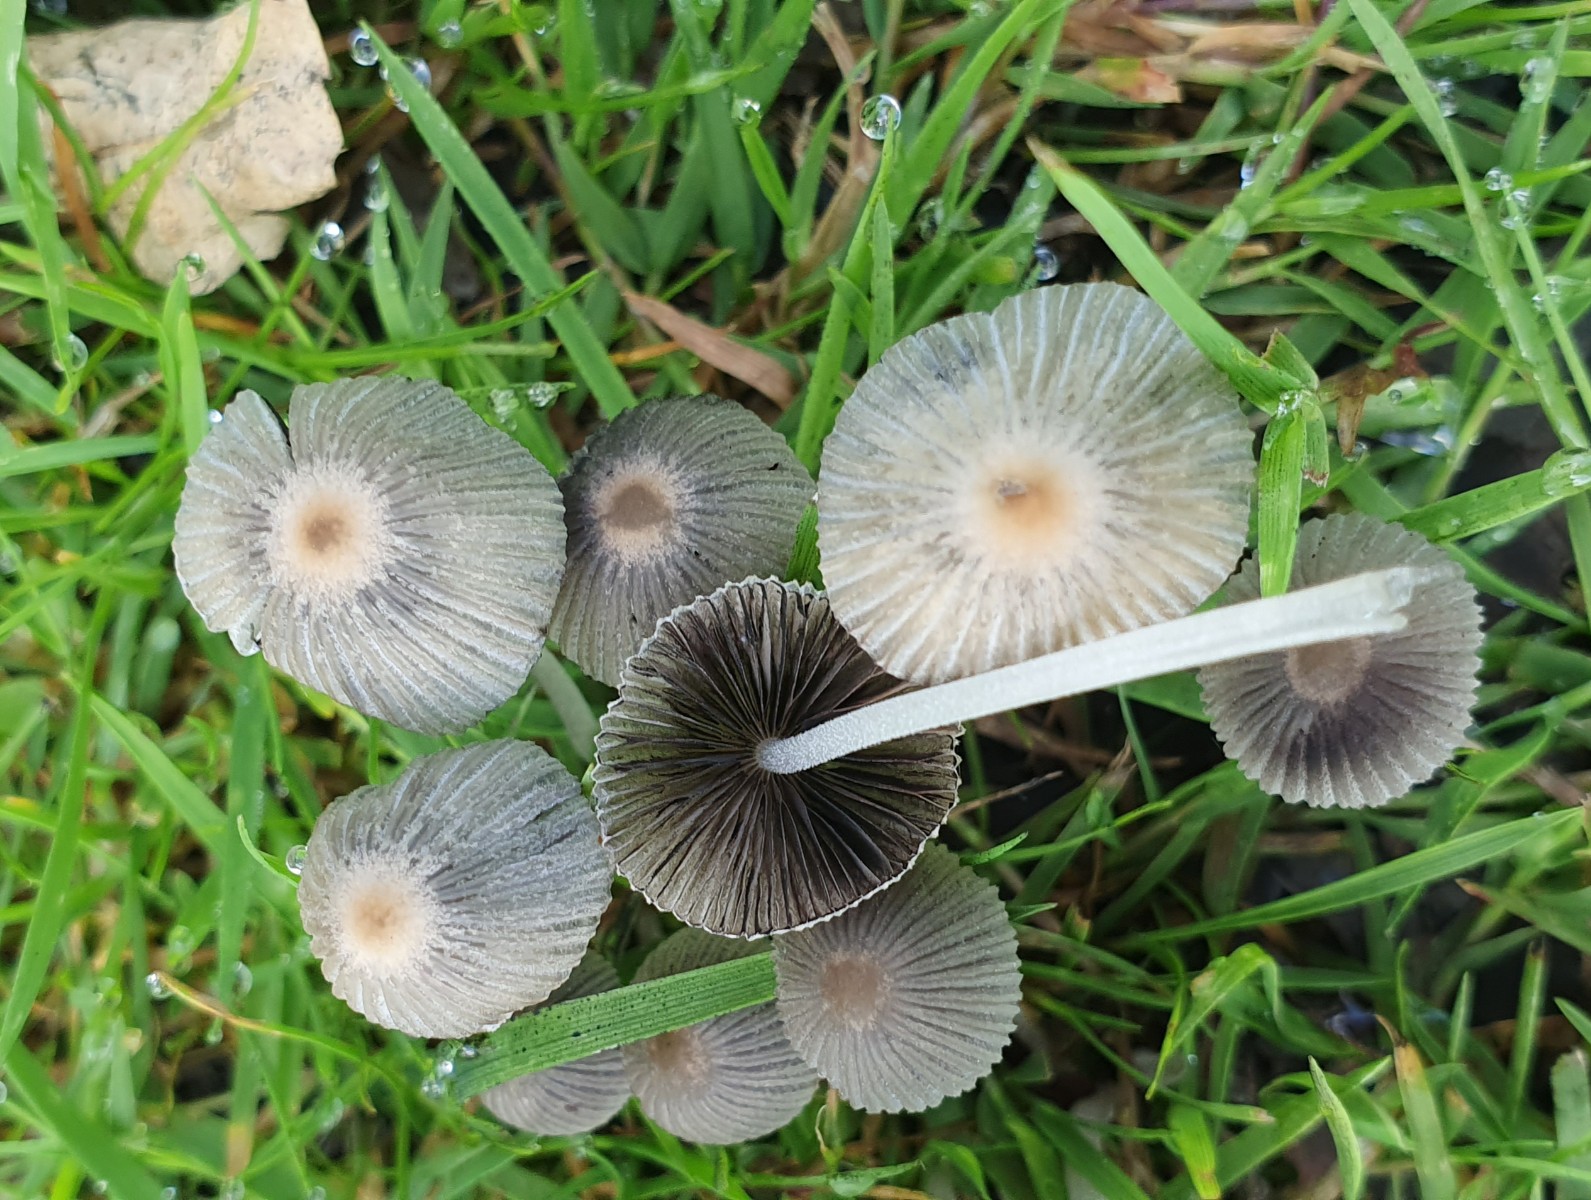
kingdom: Fungi
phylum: Basidiomycota
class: Agaricomycetes
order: Agaricales
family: Psathyrellaceae
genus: Coprinellus
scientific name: Coprinellus disseminatus
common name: bredsået blækhat
